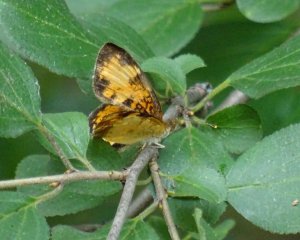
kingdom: Animalia
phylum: Arthropoda
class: Insecta
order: Lepidoptera
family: Nymphalidae
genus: Phyciodes
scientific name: Phyciodes tharos
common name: Northern Crescent
